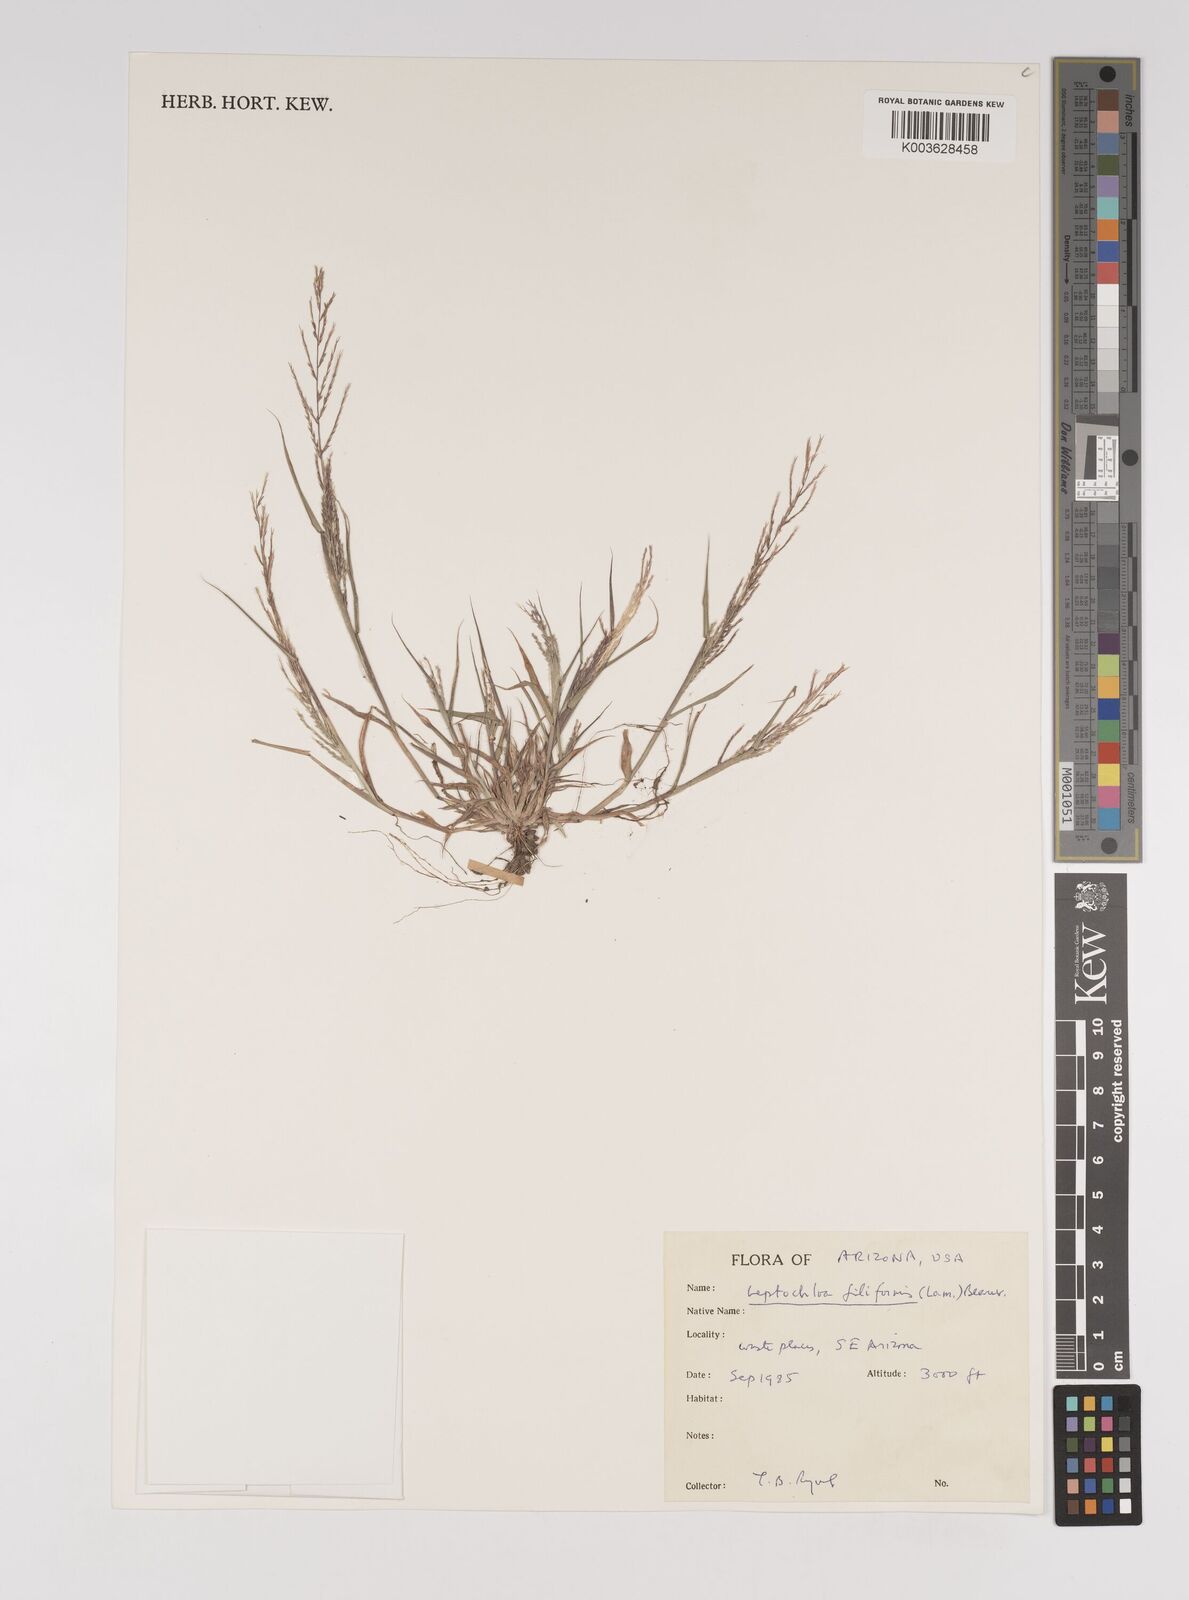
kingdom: Plantae
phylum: Tracheophyta
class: Liliopsida
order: Poales
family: Poaceae
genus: Leptochloa
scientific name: Leptochloa panicea
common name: Mucronate sprangletop
